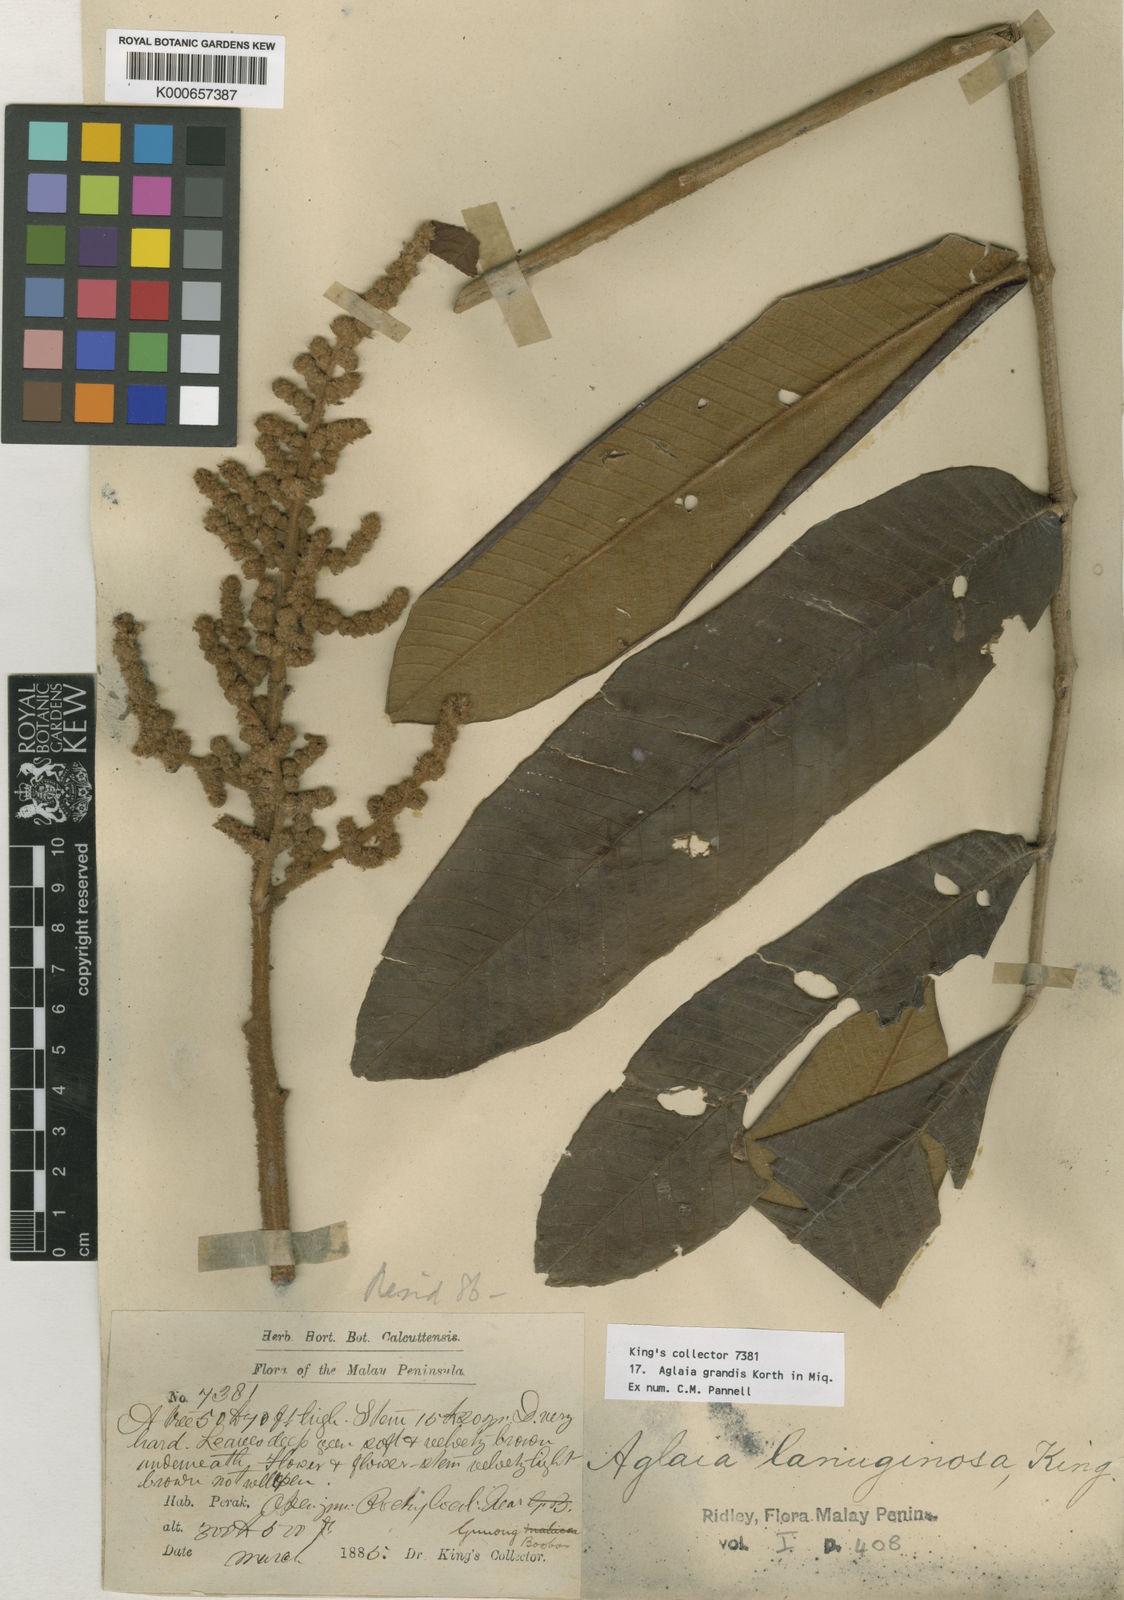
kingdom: Plantae
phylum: Tracheophyta
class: Magnoliopsida
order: Sapindales
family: Meliaceae
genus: Aglaia
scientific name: Aglaia
